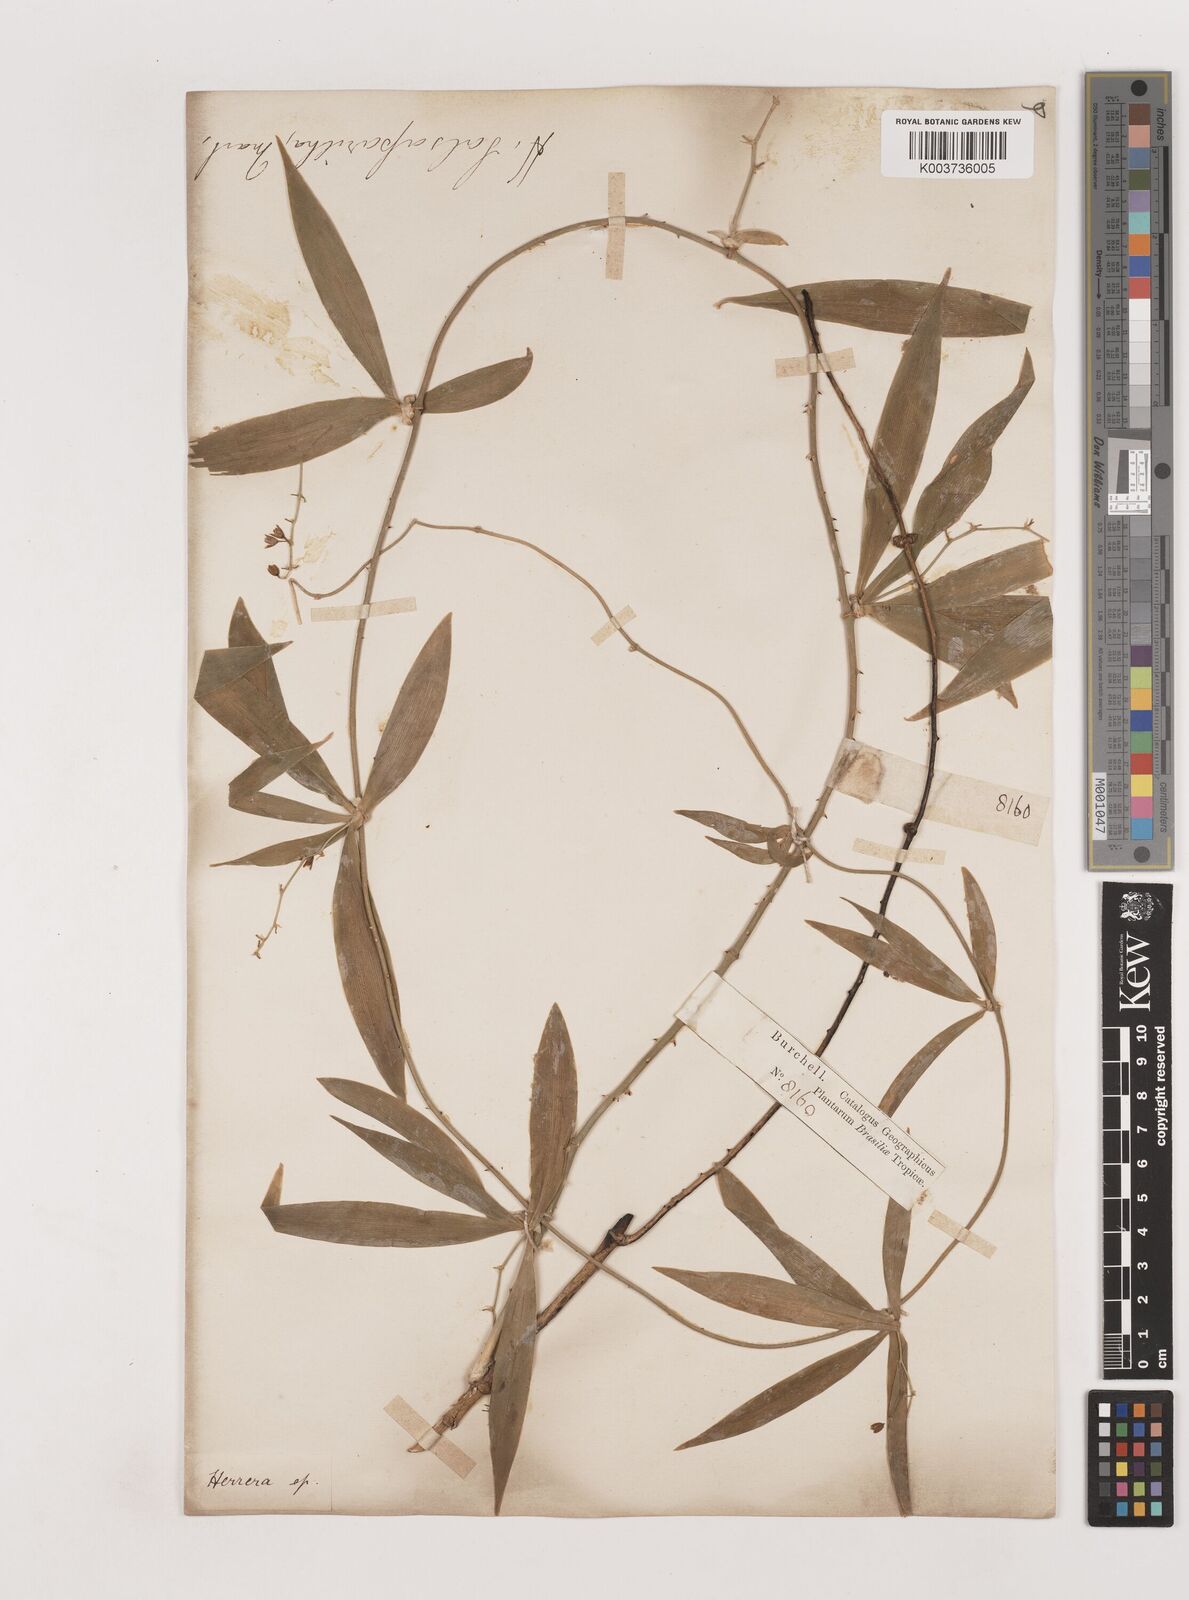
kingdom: Plantae
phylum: Tracheophyta
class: Liliopsida
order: Asparagales
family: Asparagaceae
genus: Herreria
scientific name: Herreria salsaparilha
